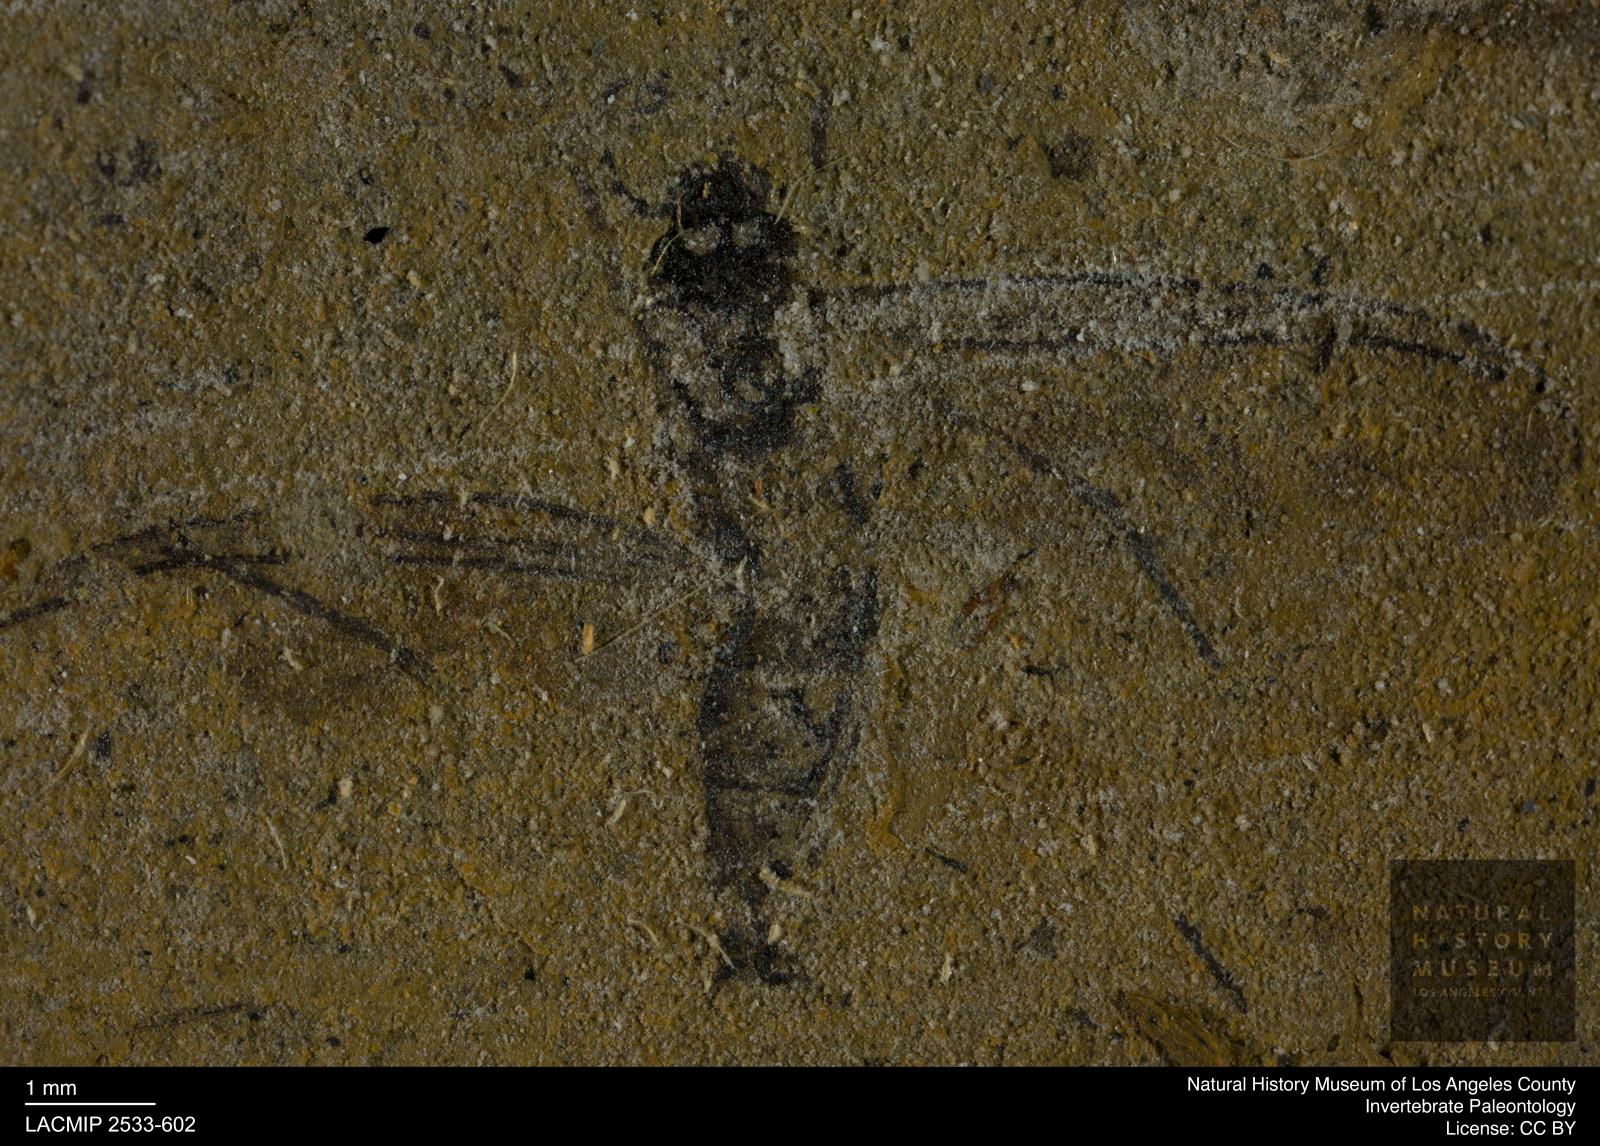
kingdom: Animalia
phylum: Arthropoda
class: Insecta
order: Diptera
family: Sciaridae
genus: Sciara
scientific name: Sciara pelidua
